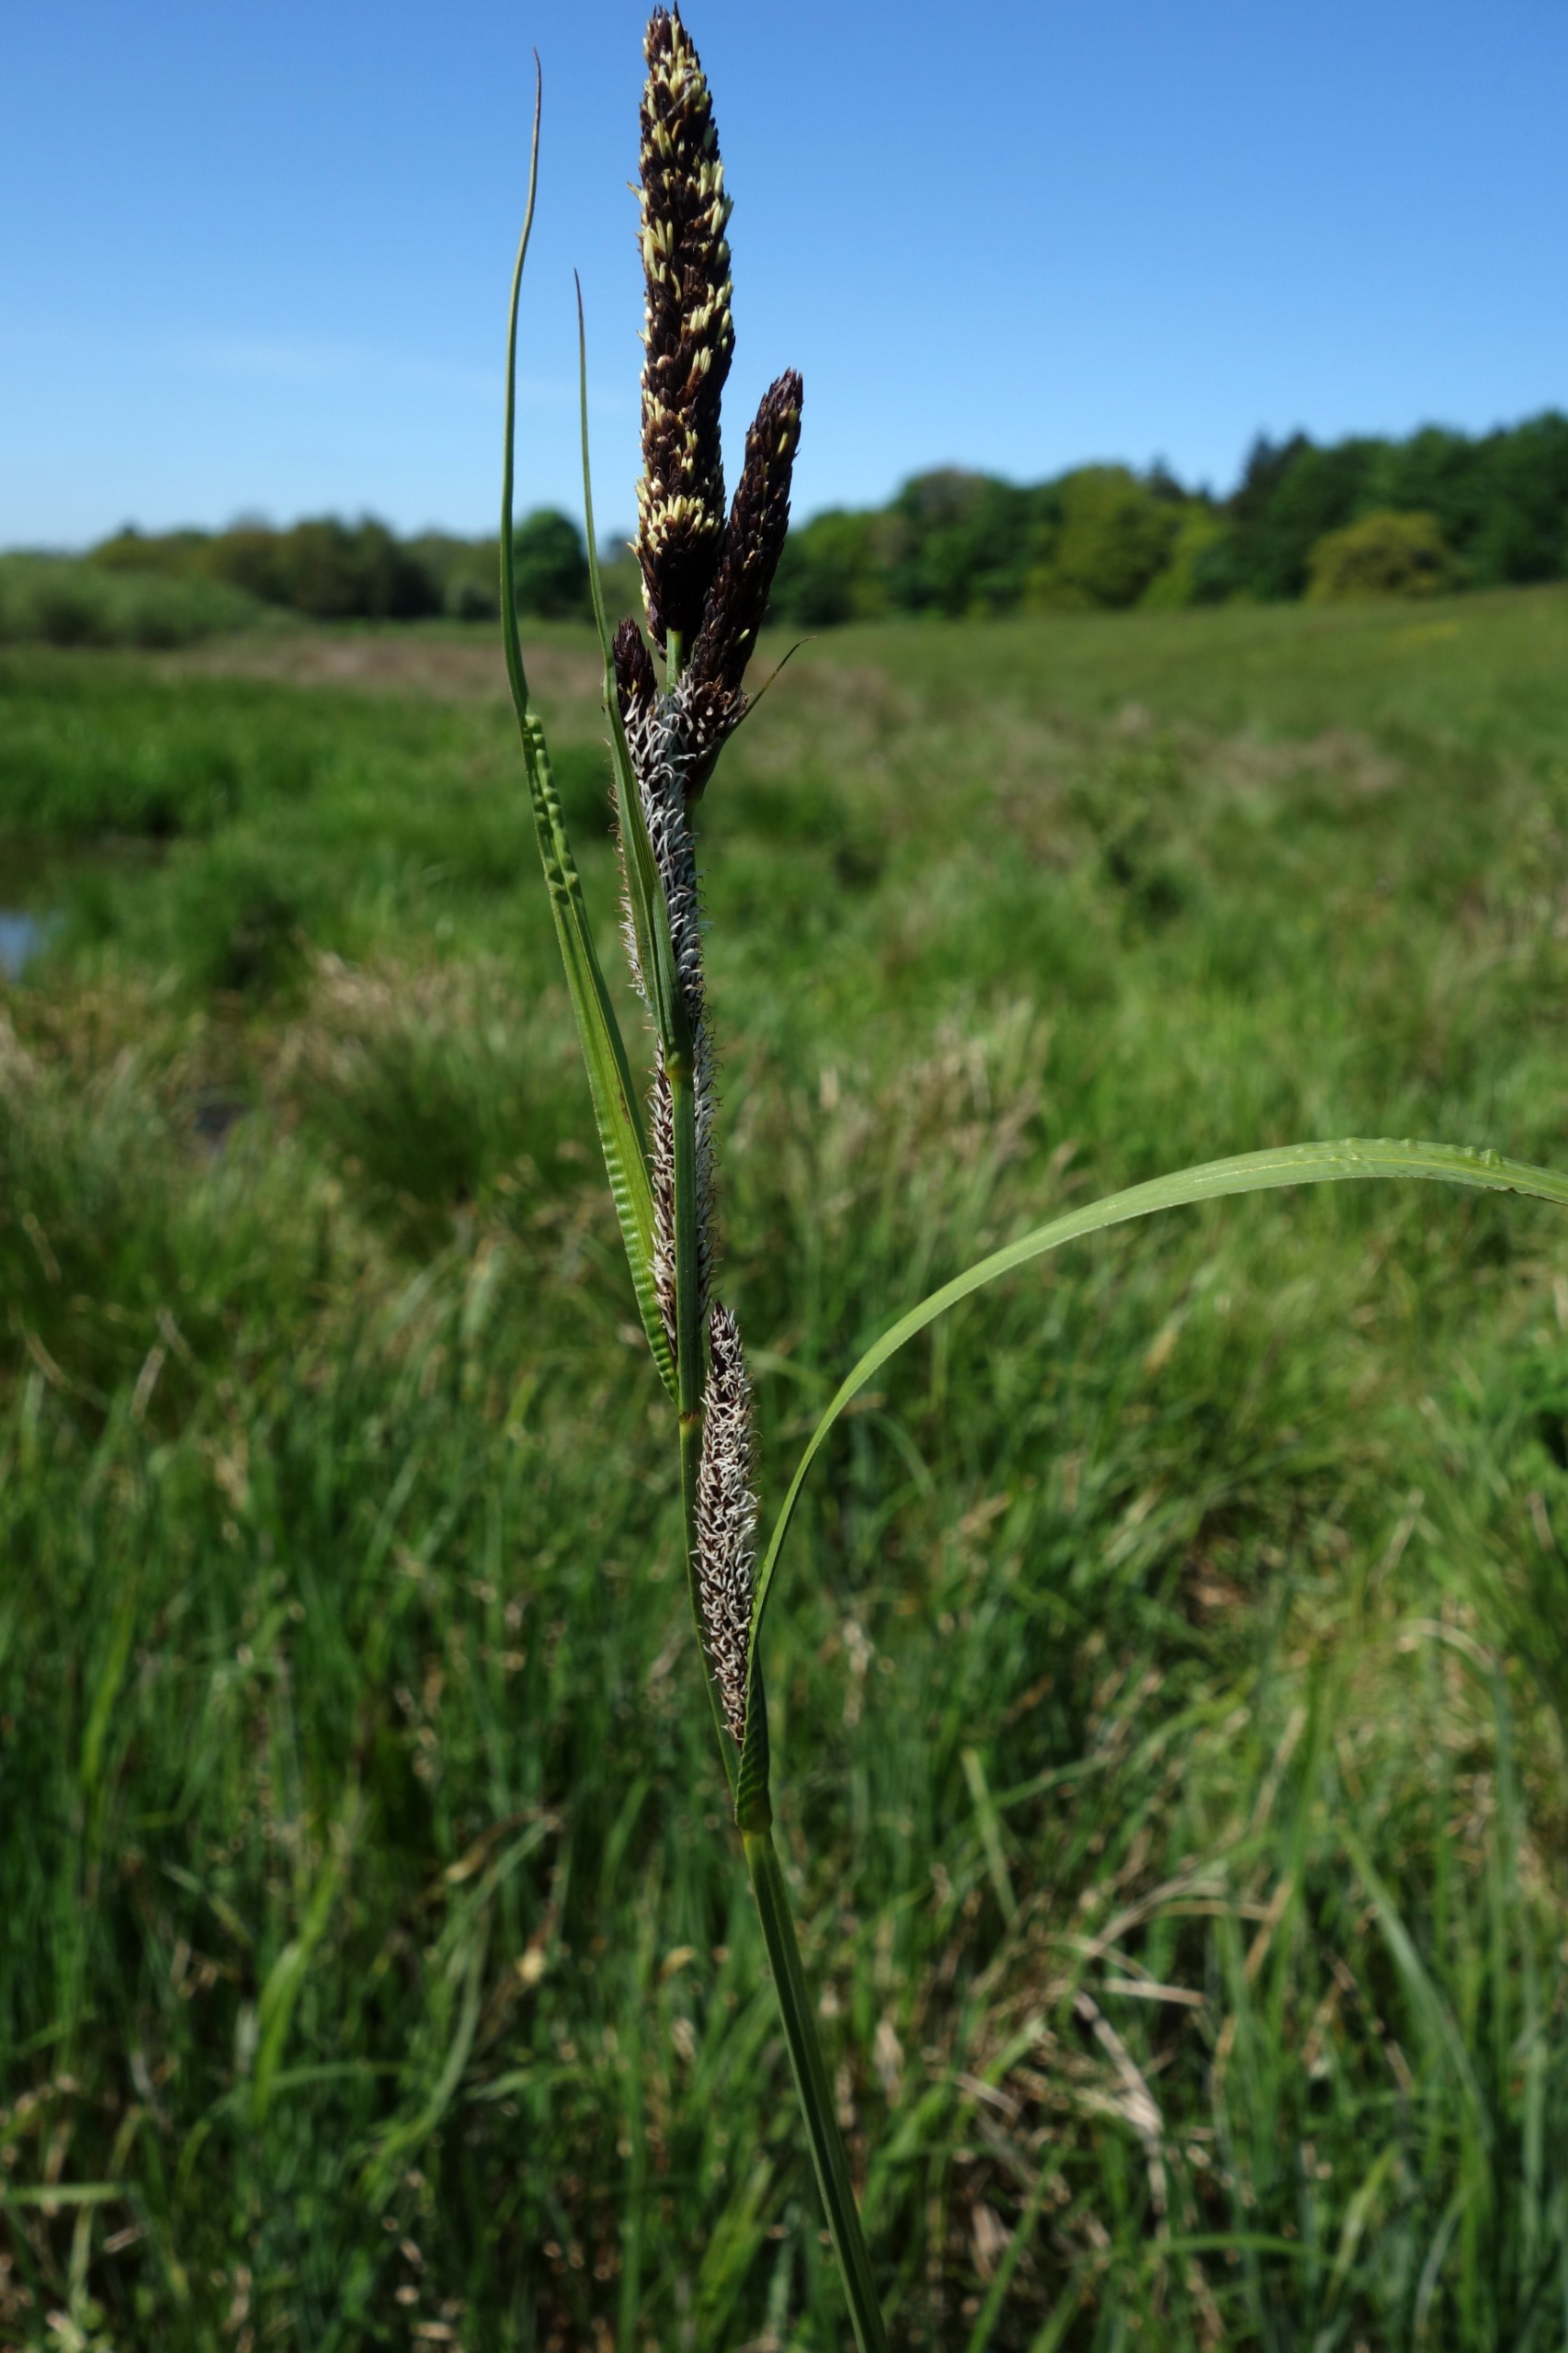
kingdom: Plantae
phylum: Tracheophyta
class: Liliopsida
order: Poales
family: Cyperaceae
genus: Carex
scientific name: Carex acuta
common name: Nikkende star
